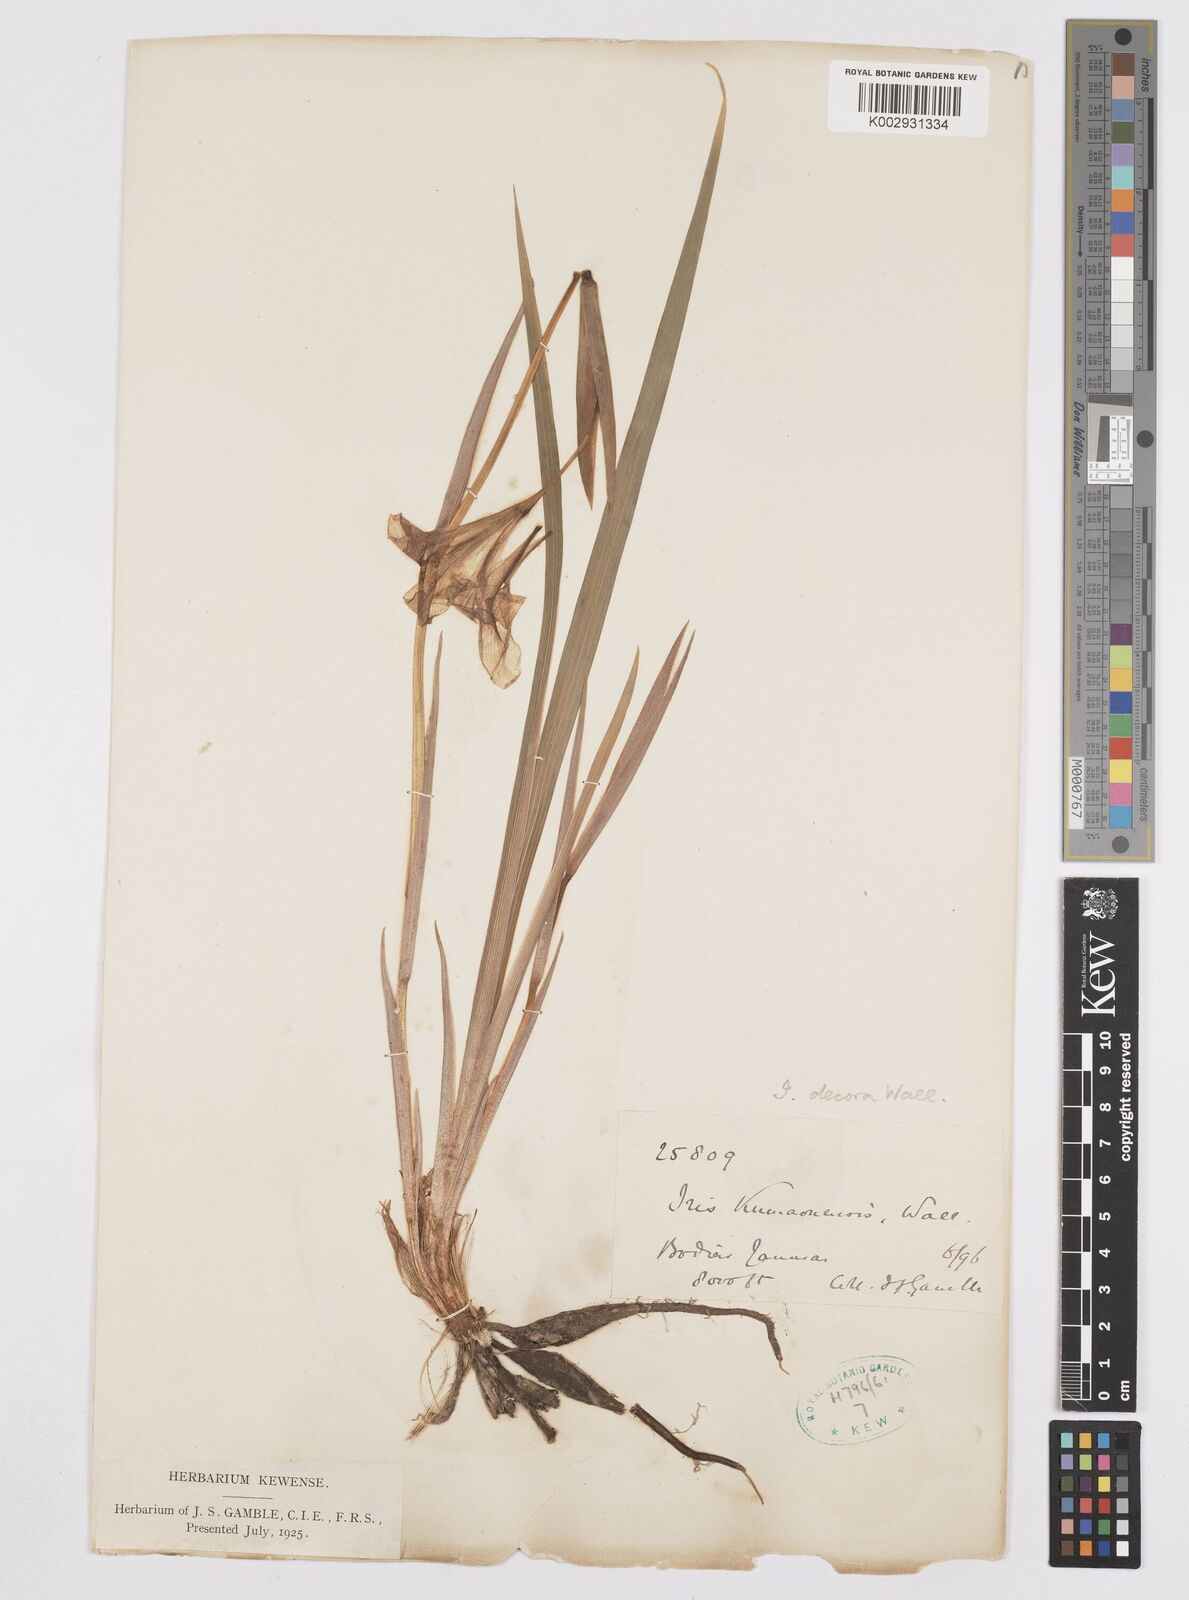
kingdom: Plantae
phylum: Tracheophyta
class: Liliopsida
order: Asparagales
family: Iridaceae
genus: Iris
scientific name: Iris decora
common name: Nepal iris
